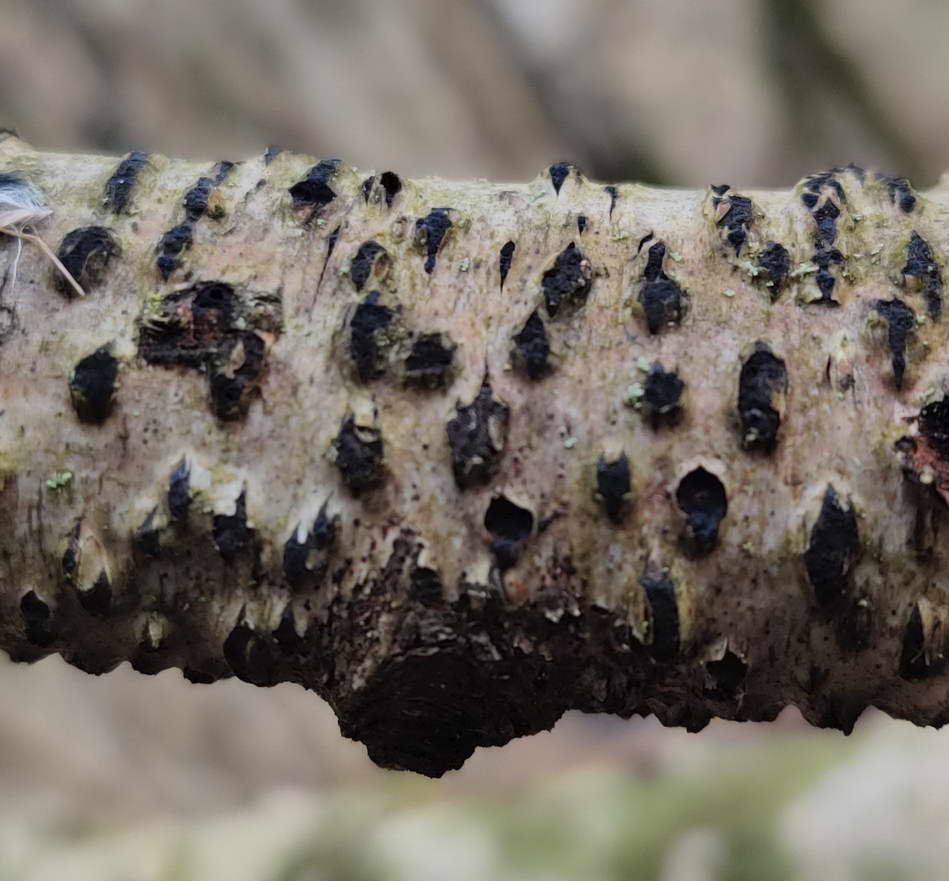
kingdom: Fungi
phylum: Ascomycota
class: Sordariomycetes
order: Xylariales
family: Diatrypaceae
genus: Diatrypella
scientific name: Diatrypella favacea
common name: Birch blackhead
